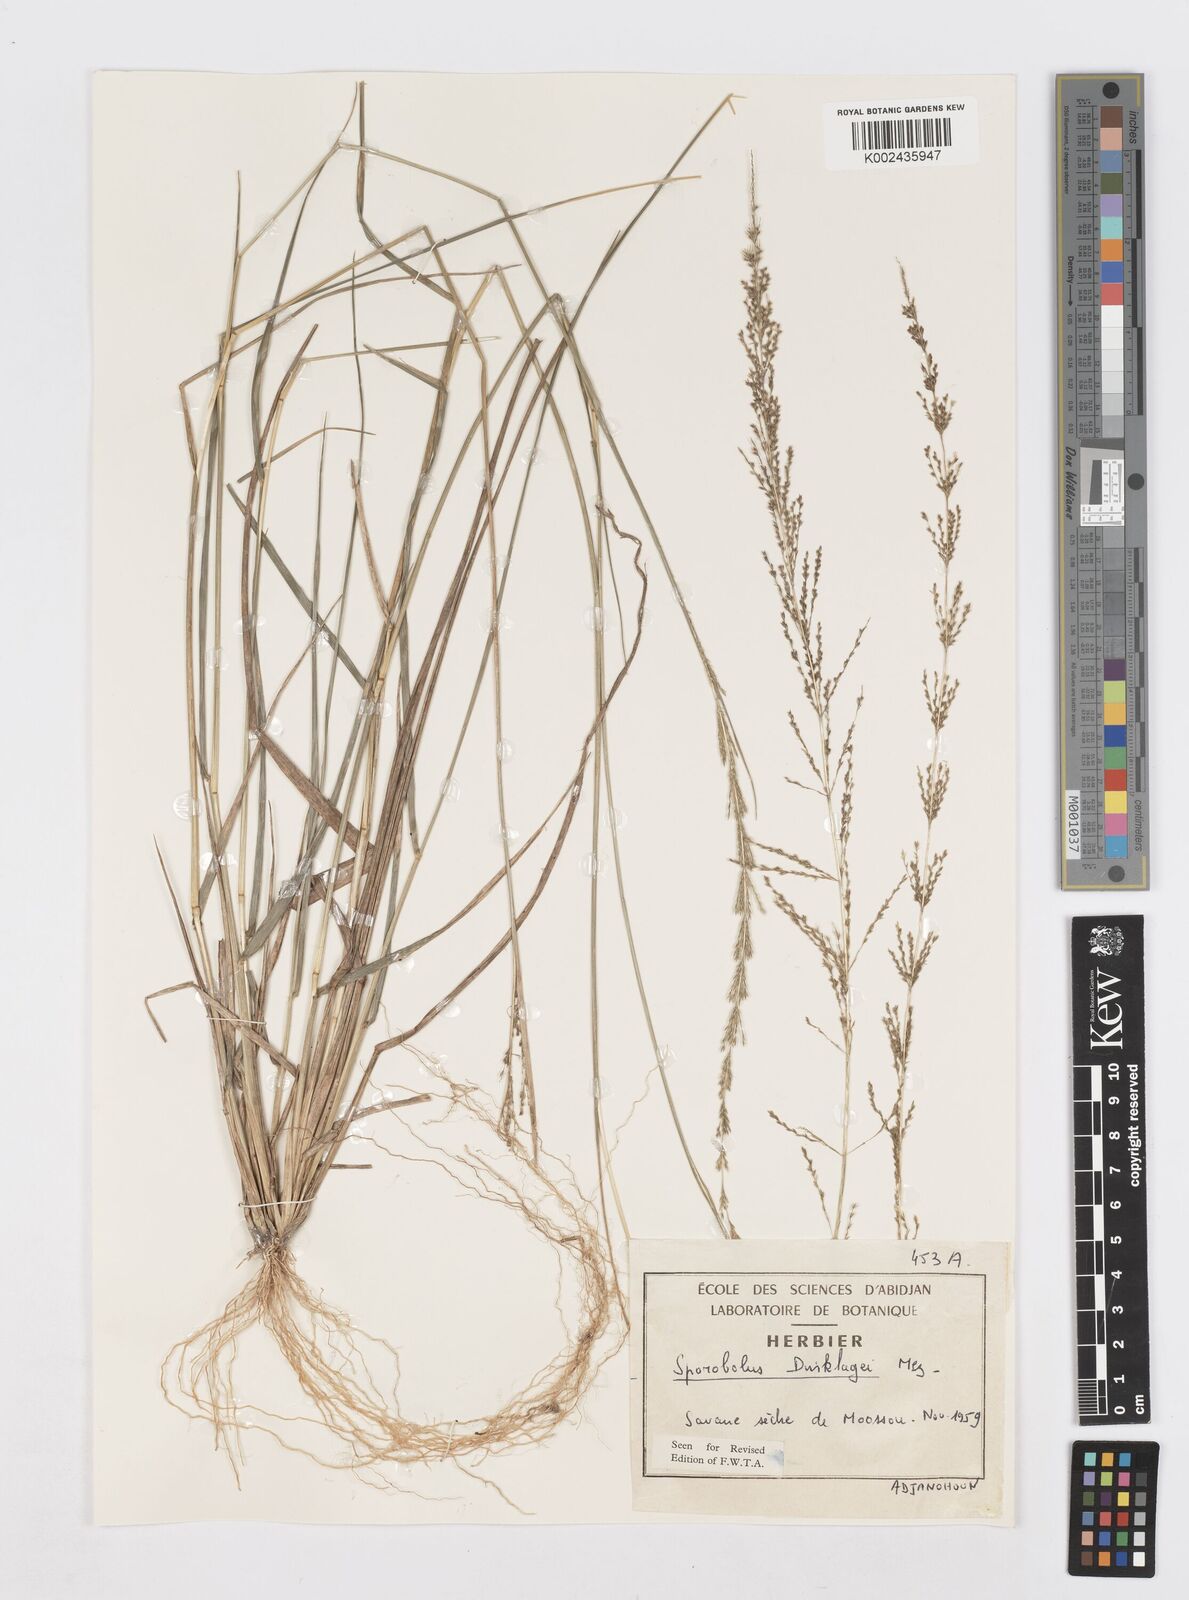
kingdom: Plantae
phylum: Tracheophyta
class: Liliopsida
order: Poales
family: Poaceae
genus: Sporobolus
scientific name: Sporobolus dinklagei
